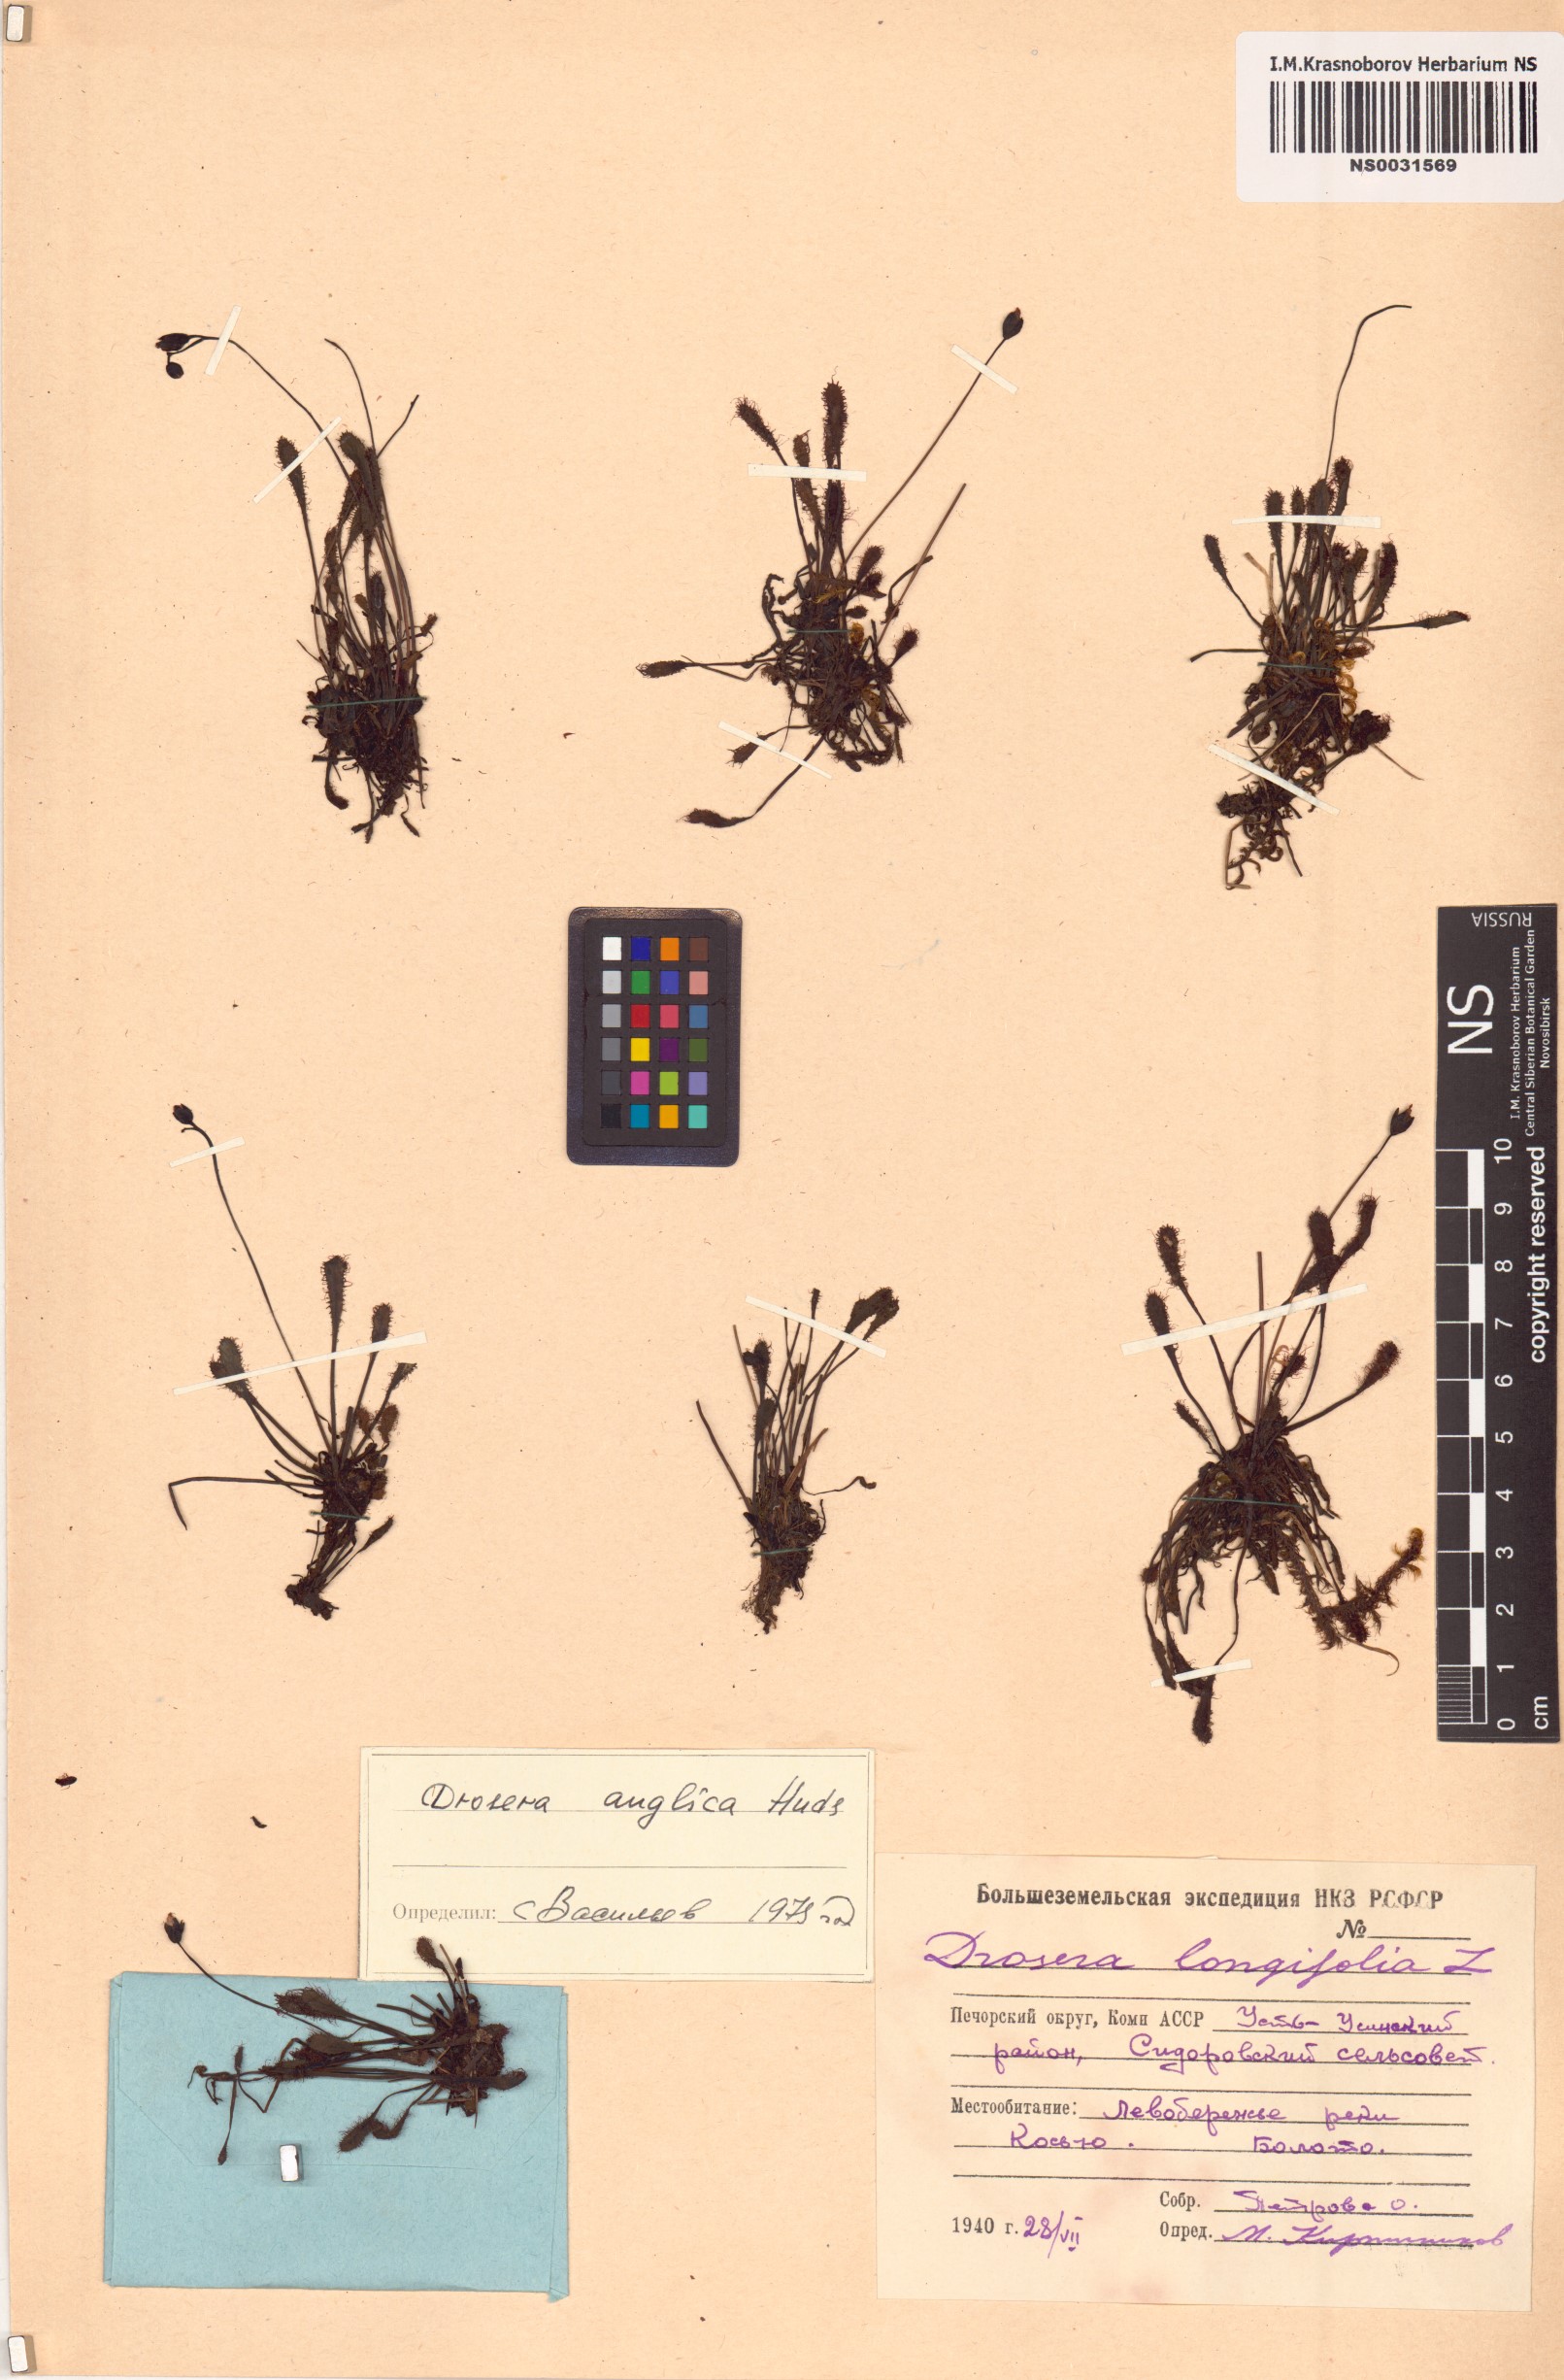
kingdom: Plantae
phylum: Tracheophyta
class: Magnoliopsida
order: Caryophyllales
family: Droseraceae
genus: Drosera
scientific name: Drosera anglica
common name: Great sundew
